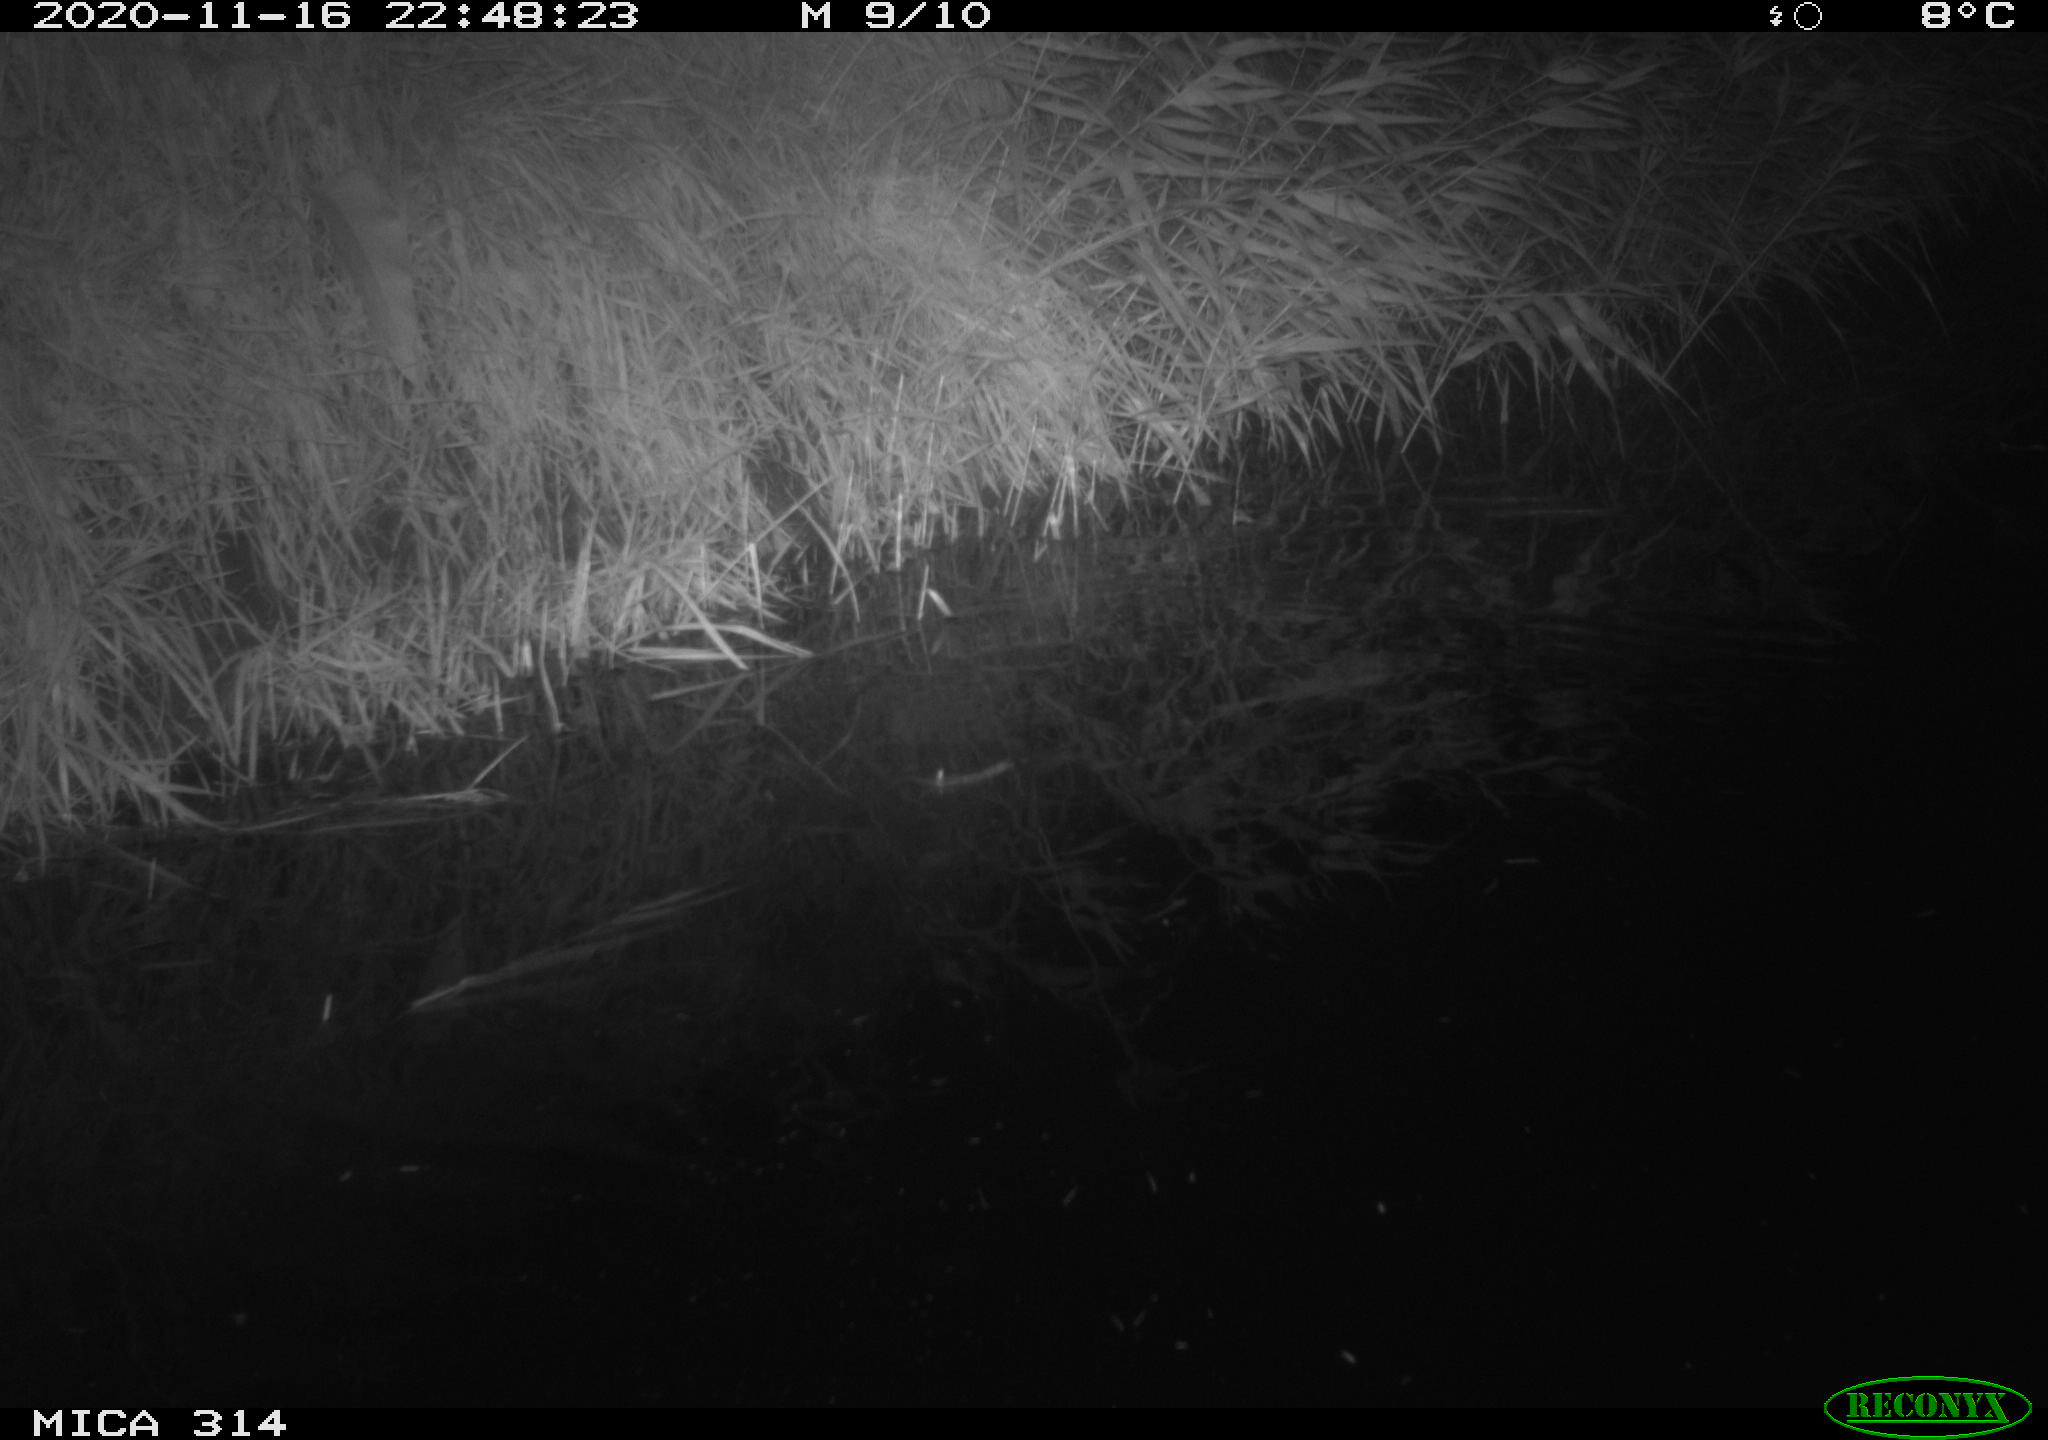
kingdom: Animalia
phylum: Chordata
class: Mammalia
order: Rodentia
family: Muridae
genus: Rattus
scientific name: Rattus norvegicus
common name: Brown rat
